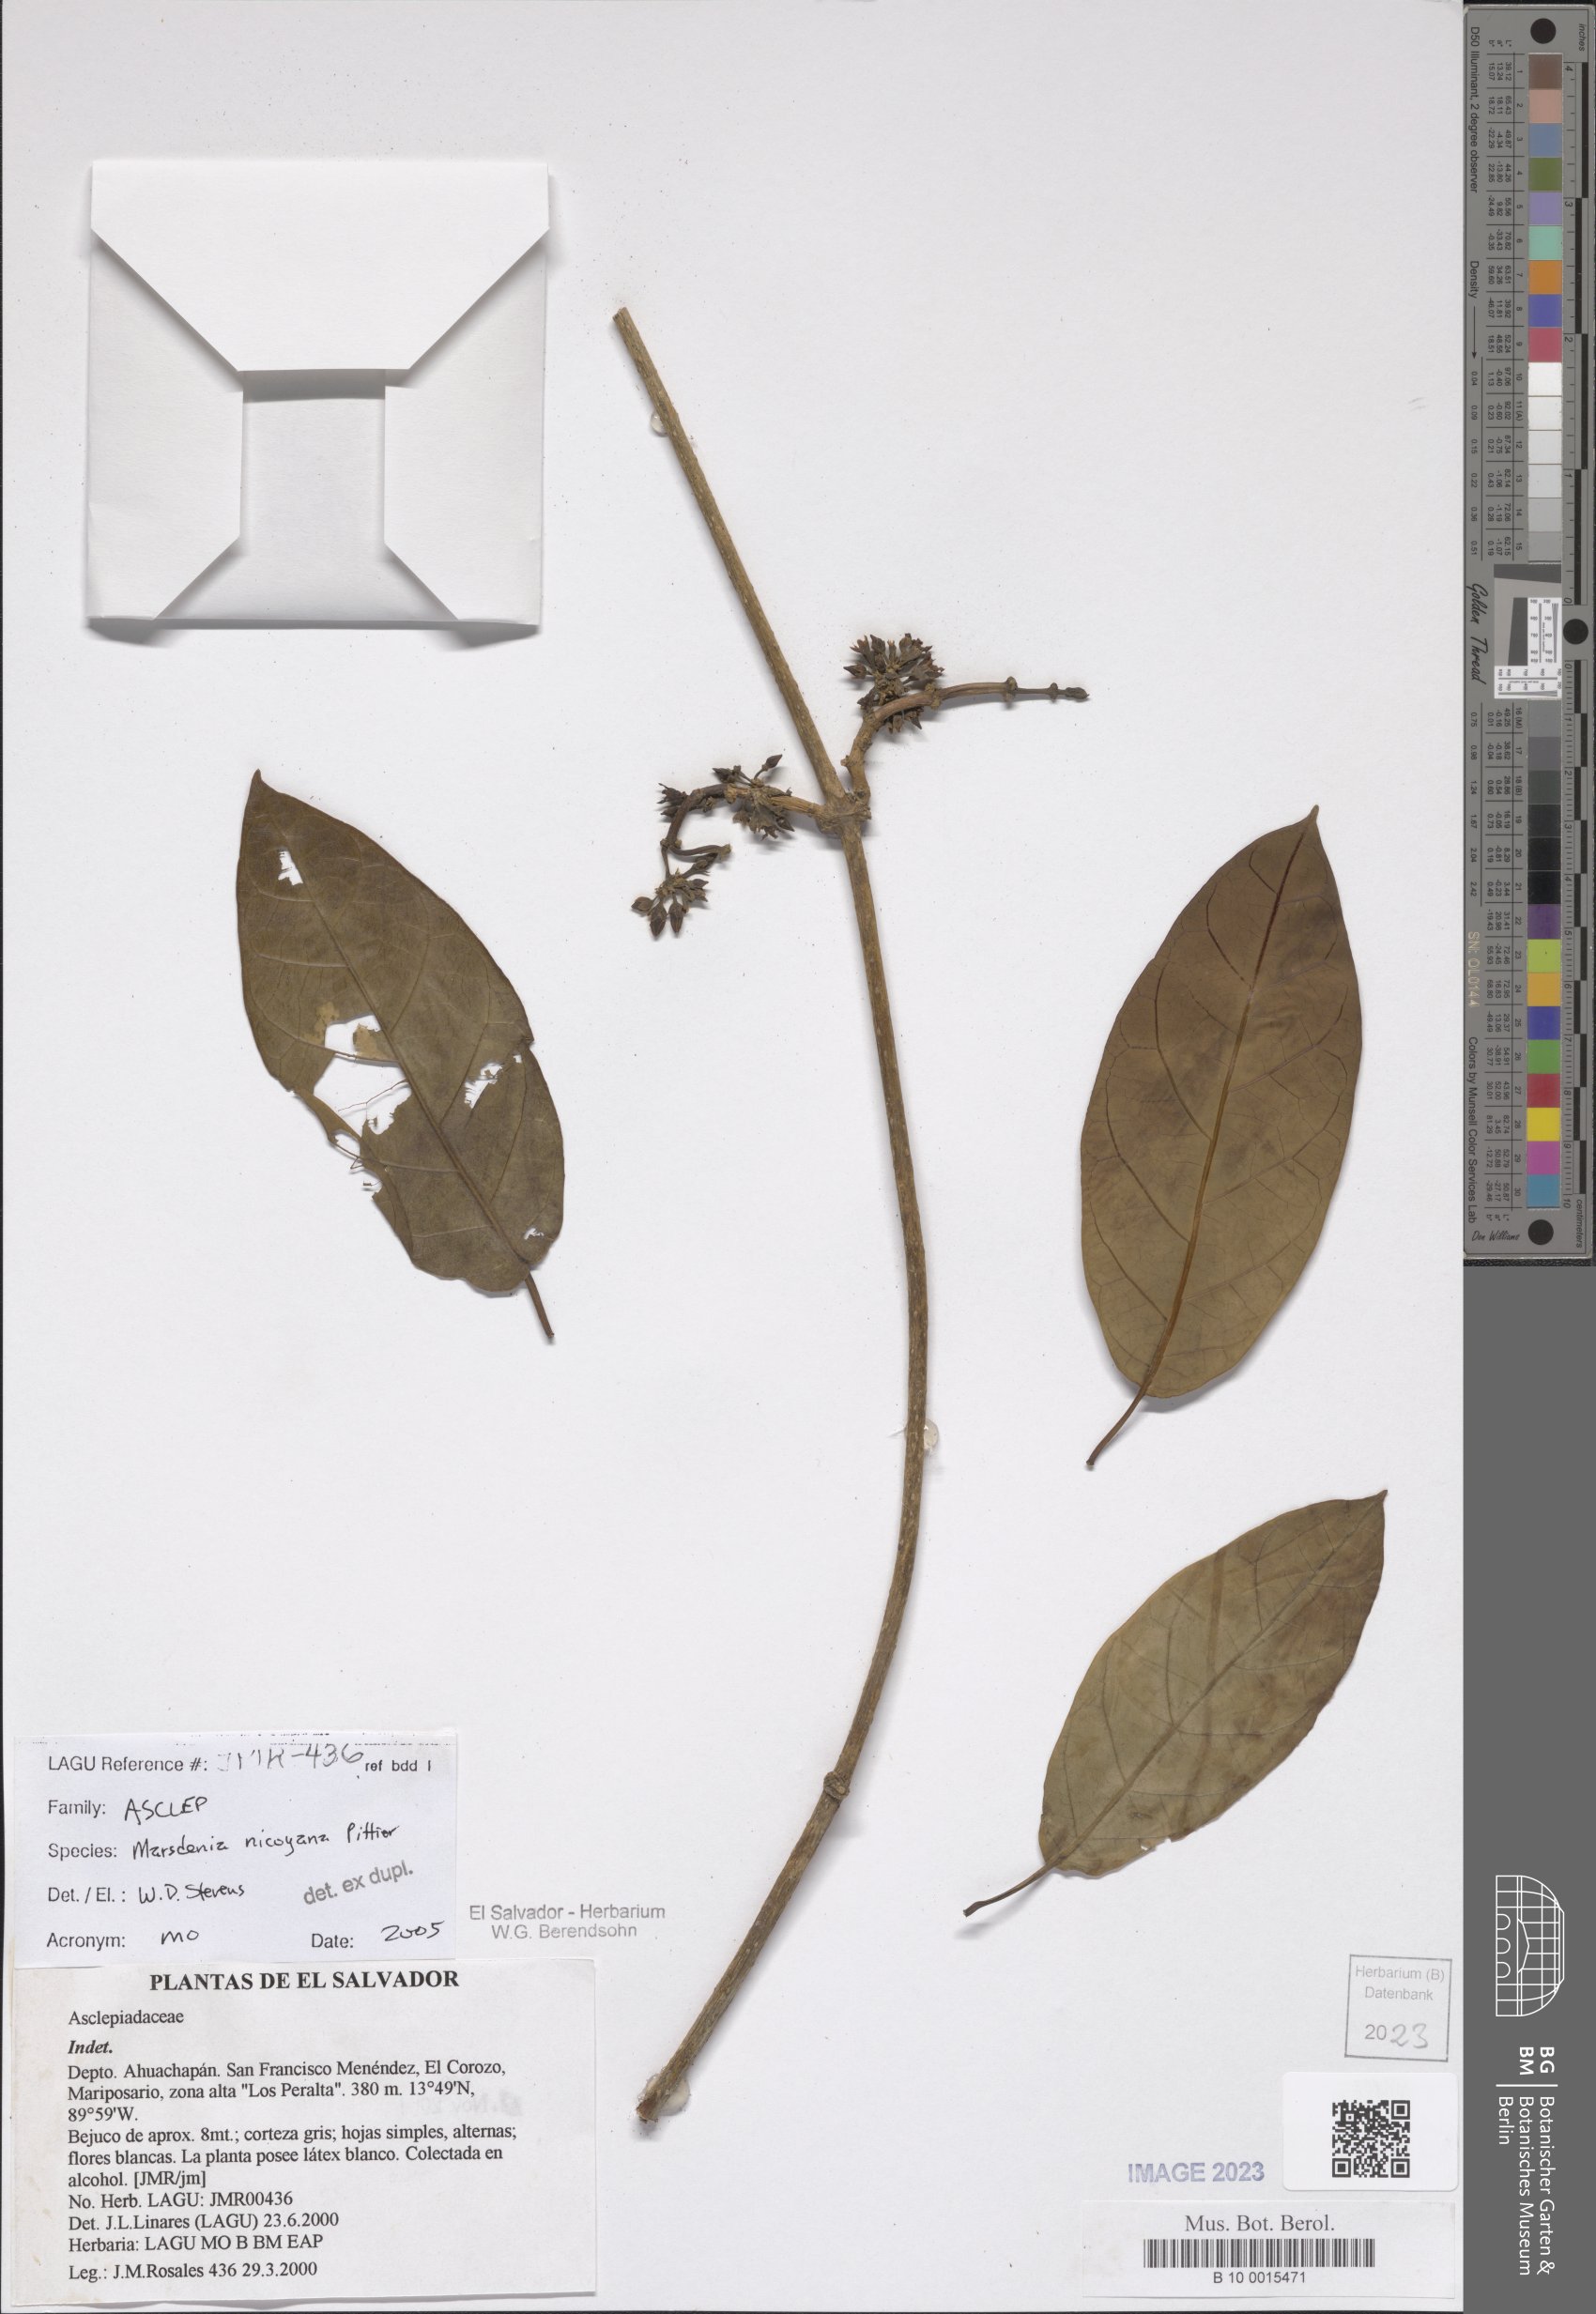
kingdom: Plantae
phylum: Tracheophyta
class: Magnoliopsida
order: Gentianales
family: Apocynaceae
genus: Ruehssia
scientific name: Ruehssia nicoyana
